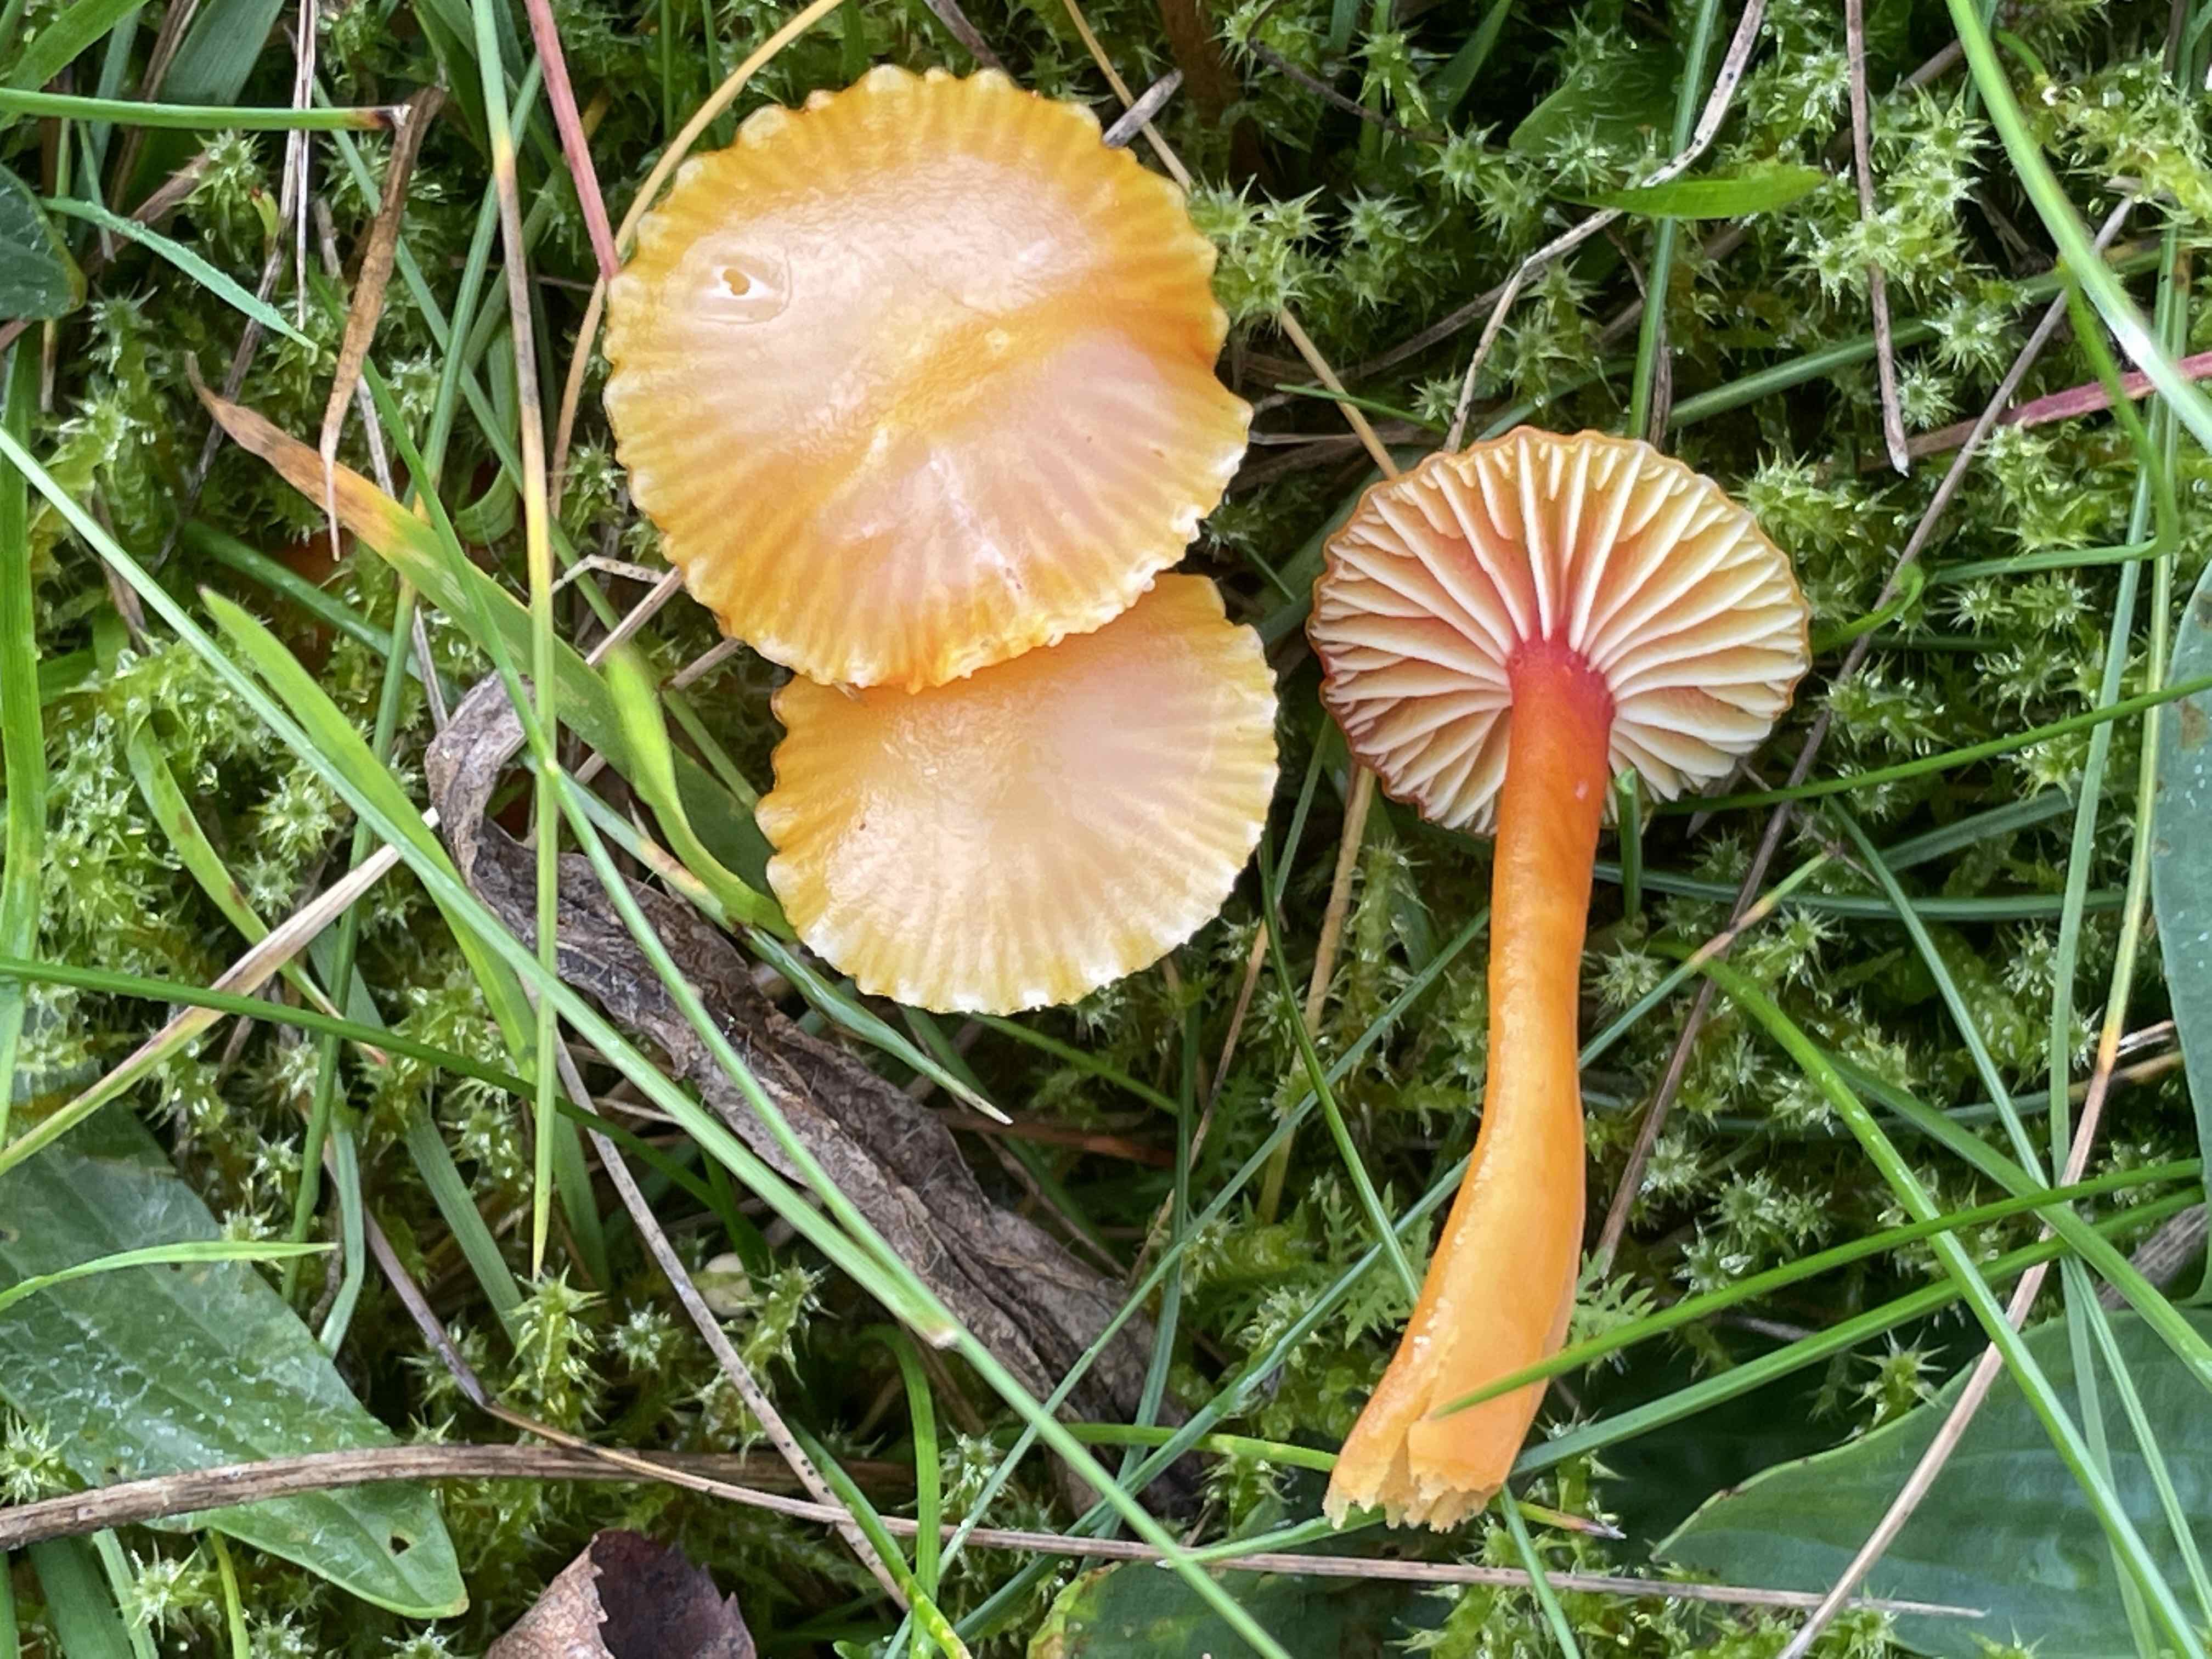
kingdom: Fungi
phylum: Basidiomycota
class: Agaricomycetes
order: Agaricales
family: Hygrophoraceae
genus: Hygrocybe
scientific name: Hygrocybe insipida
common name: liden vokshat
